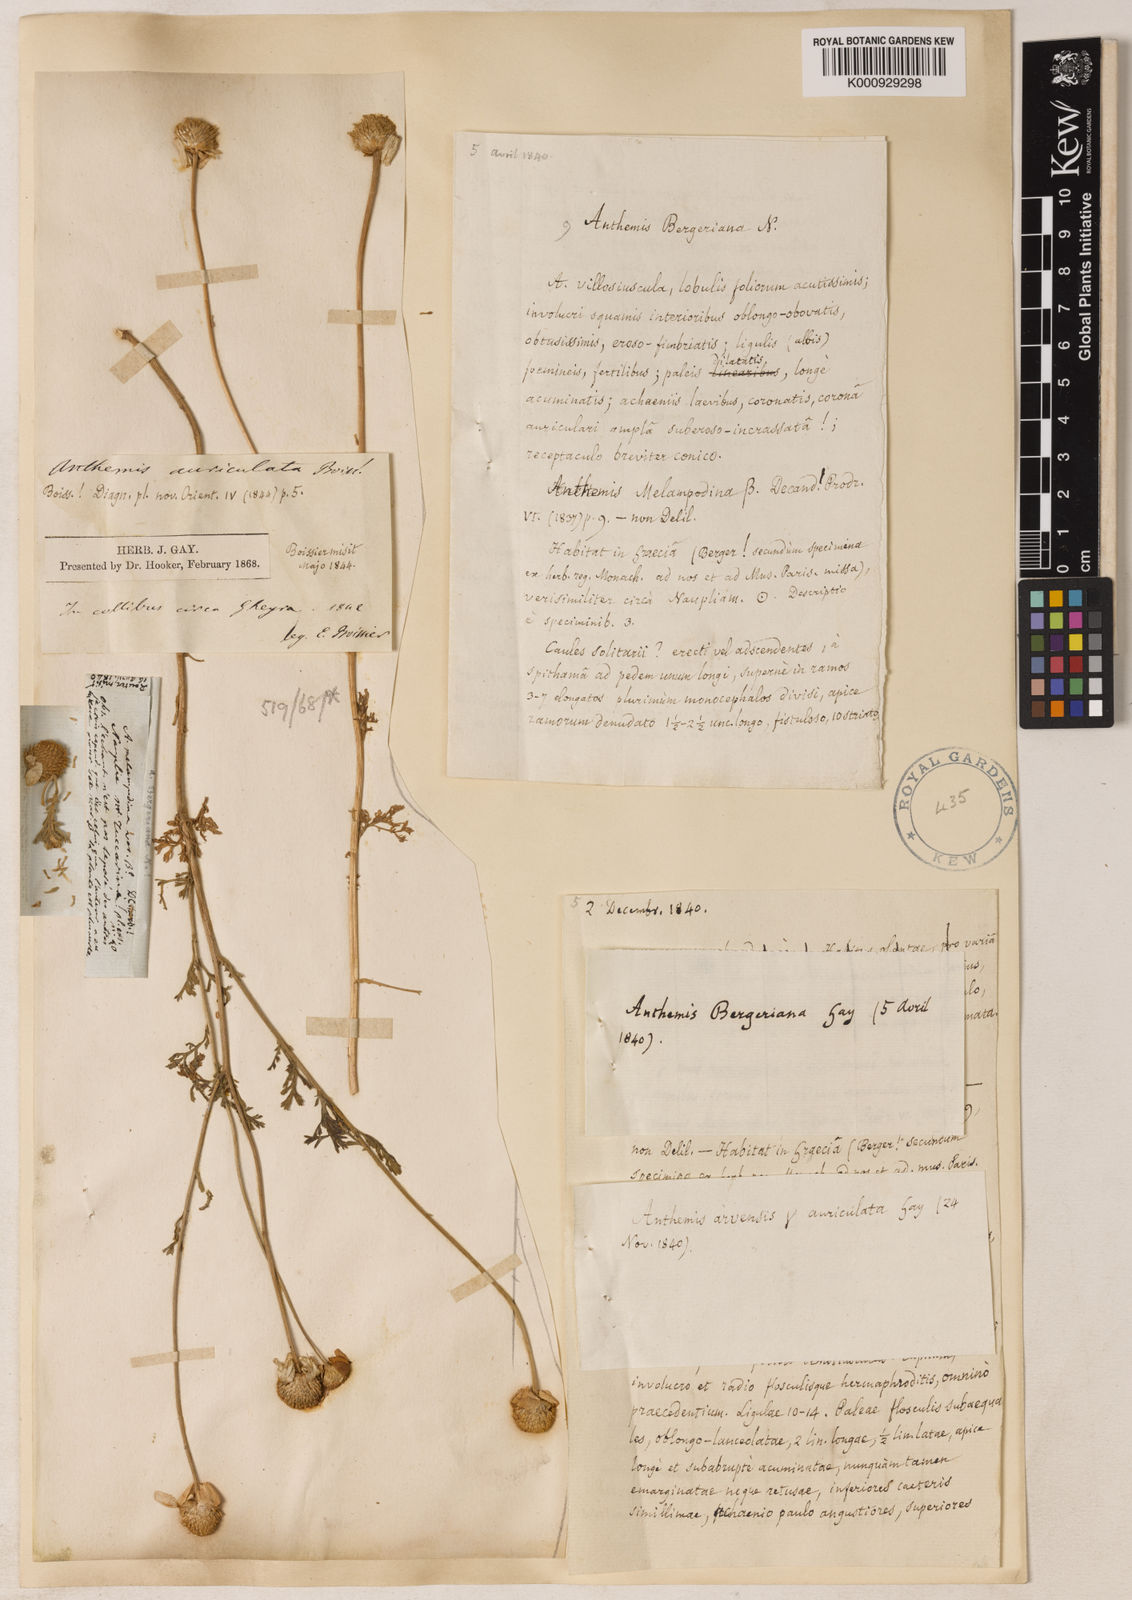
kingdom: Plantae
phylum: Tracheophyta
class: Magnoliopsida
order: Asterales
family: Asteraceae
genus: Anthemis
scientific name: Anthemis auriculata
